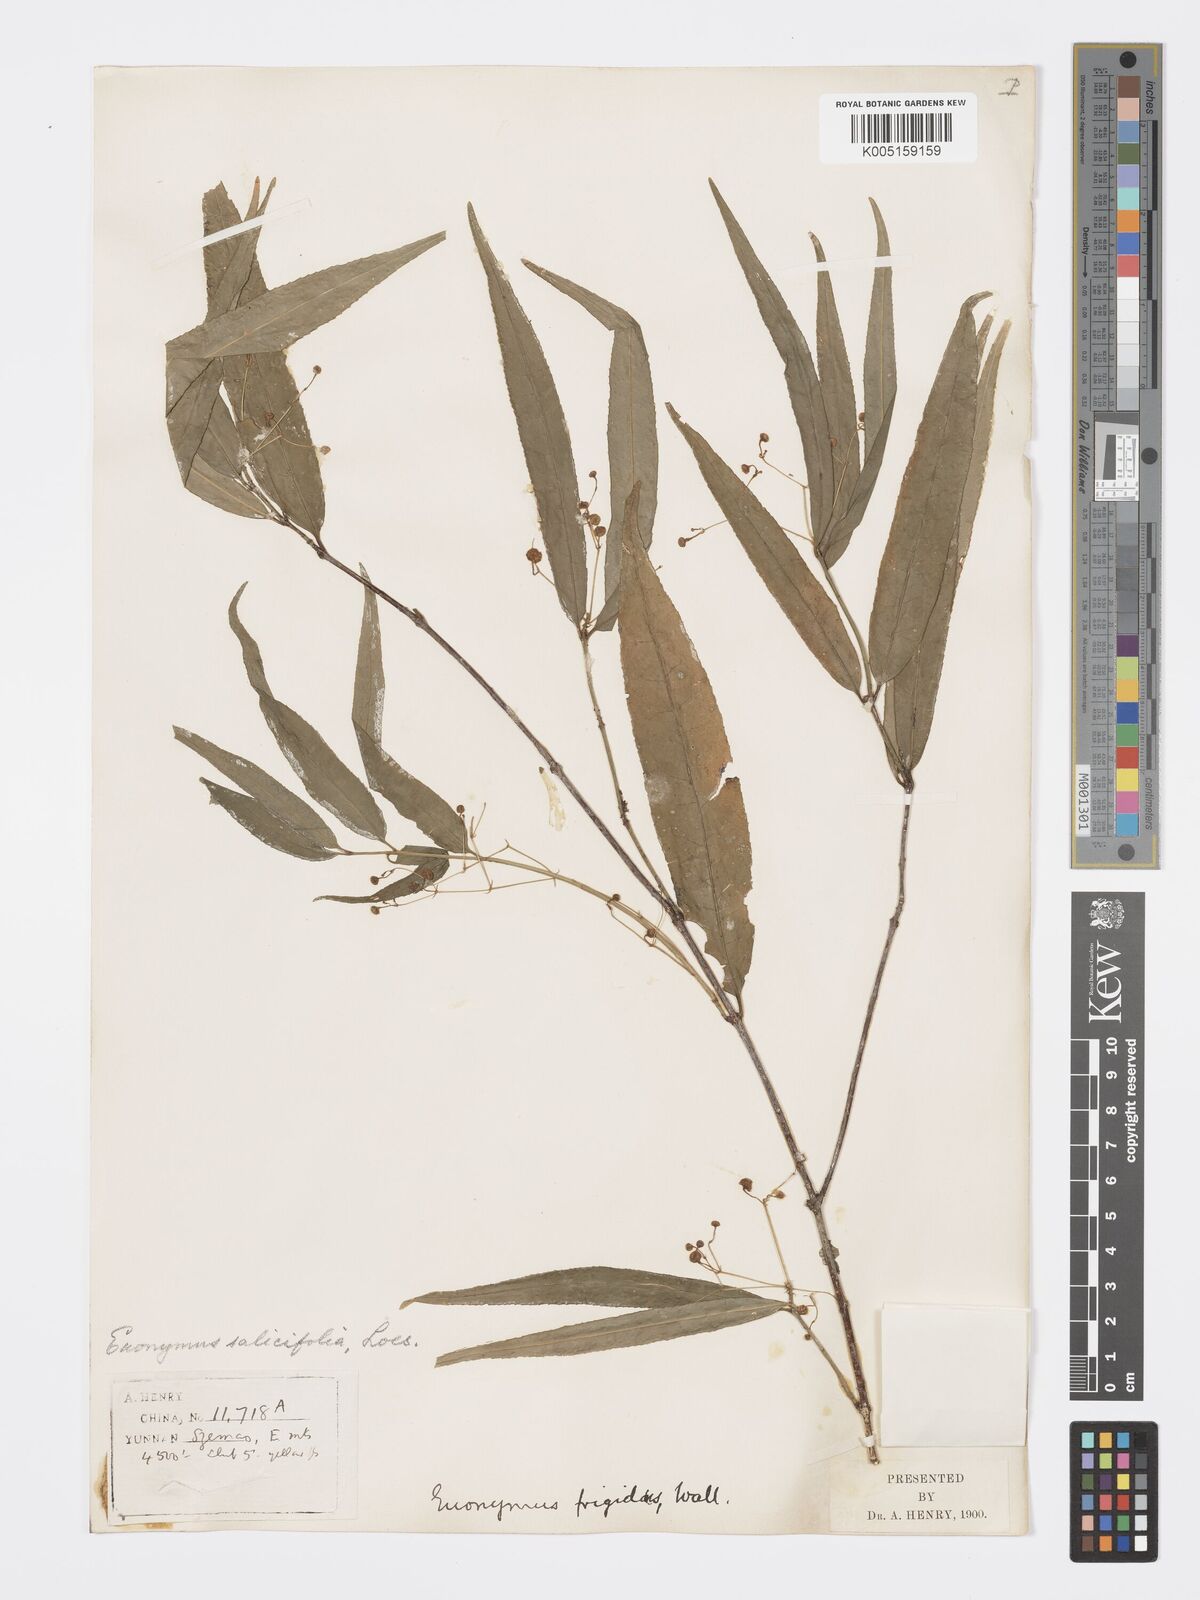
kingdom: Plantae
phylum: Tracheophyta
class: Magnoliopsida
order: Celastrales
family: Celastraceae
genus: Euonymus
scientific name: Euonymus lawsonii
